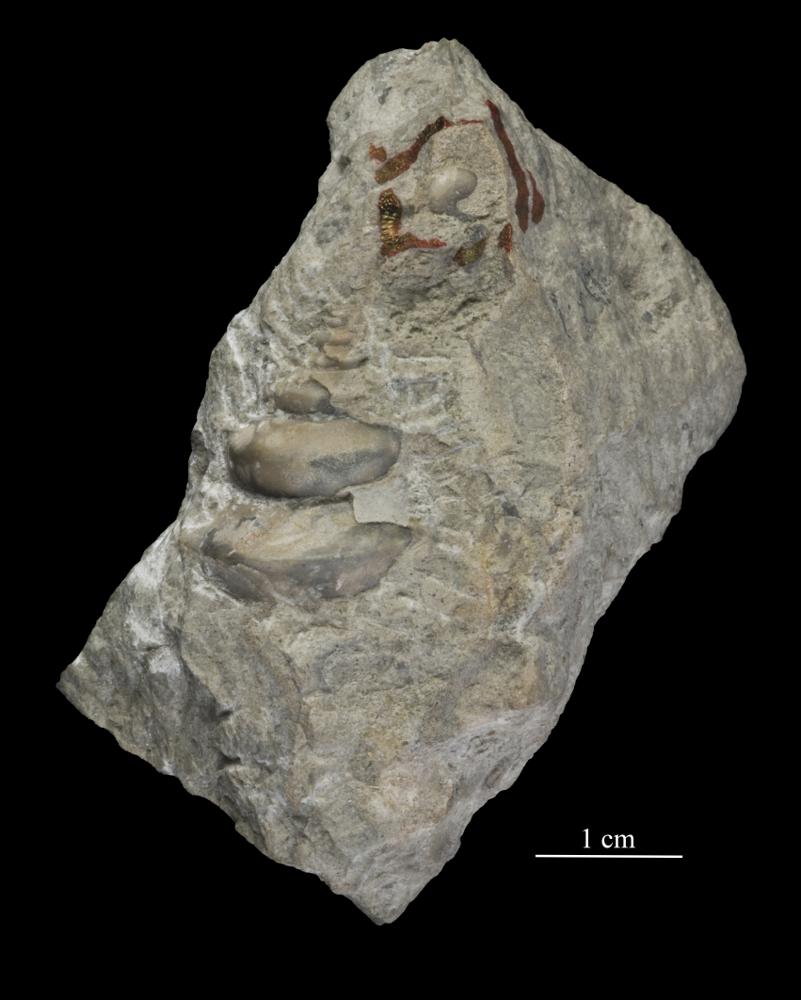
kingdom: Animalia
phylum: Mollusca
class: Gastropoda
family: Lophospiridae
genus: Loxoplocus
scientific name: Loxoplocus Turbo silurica
